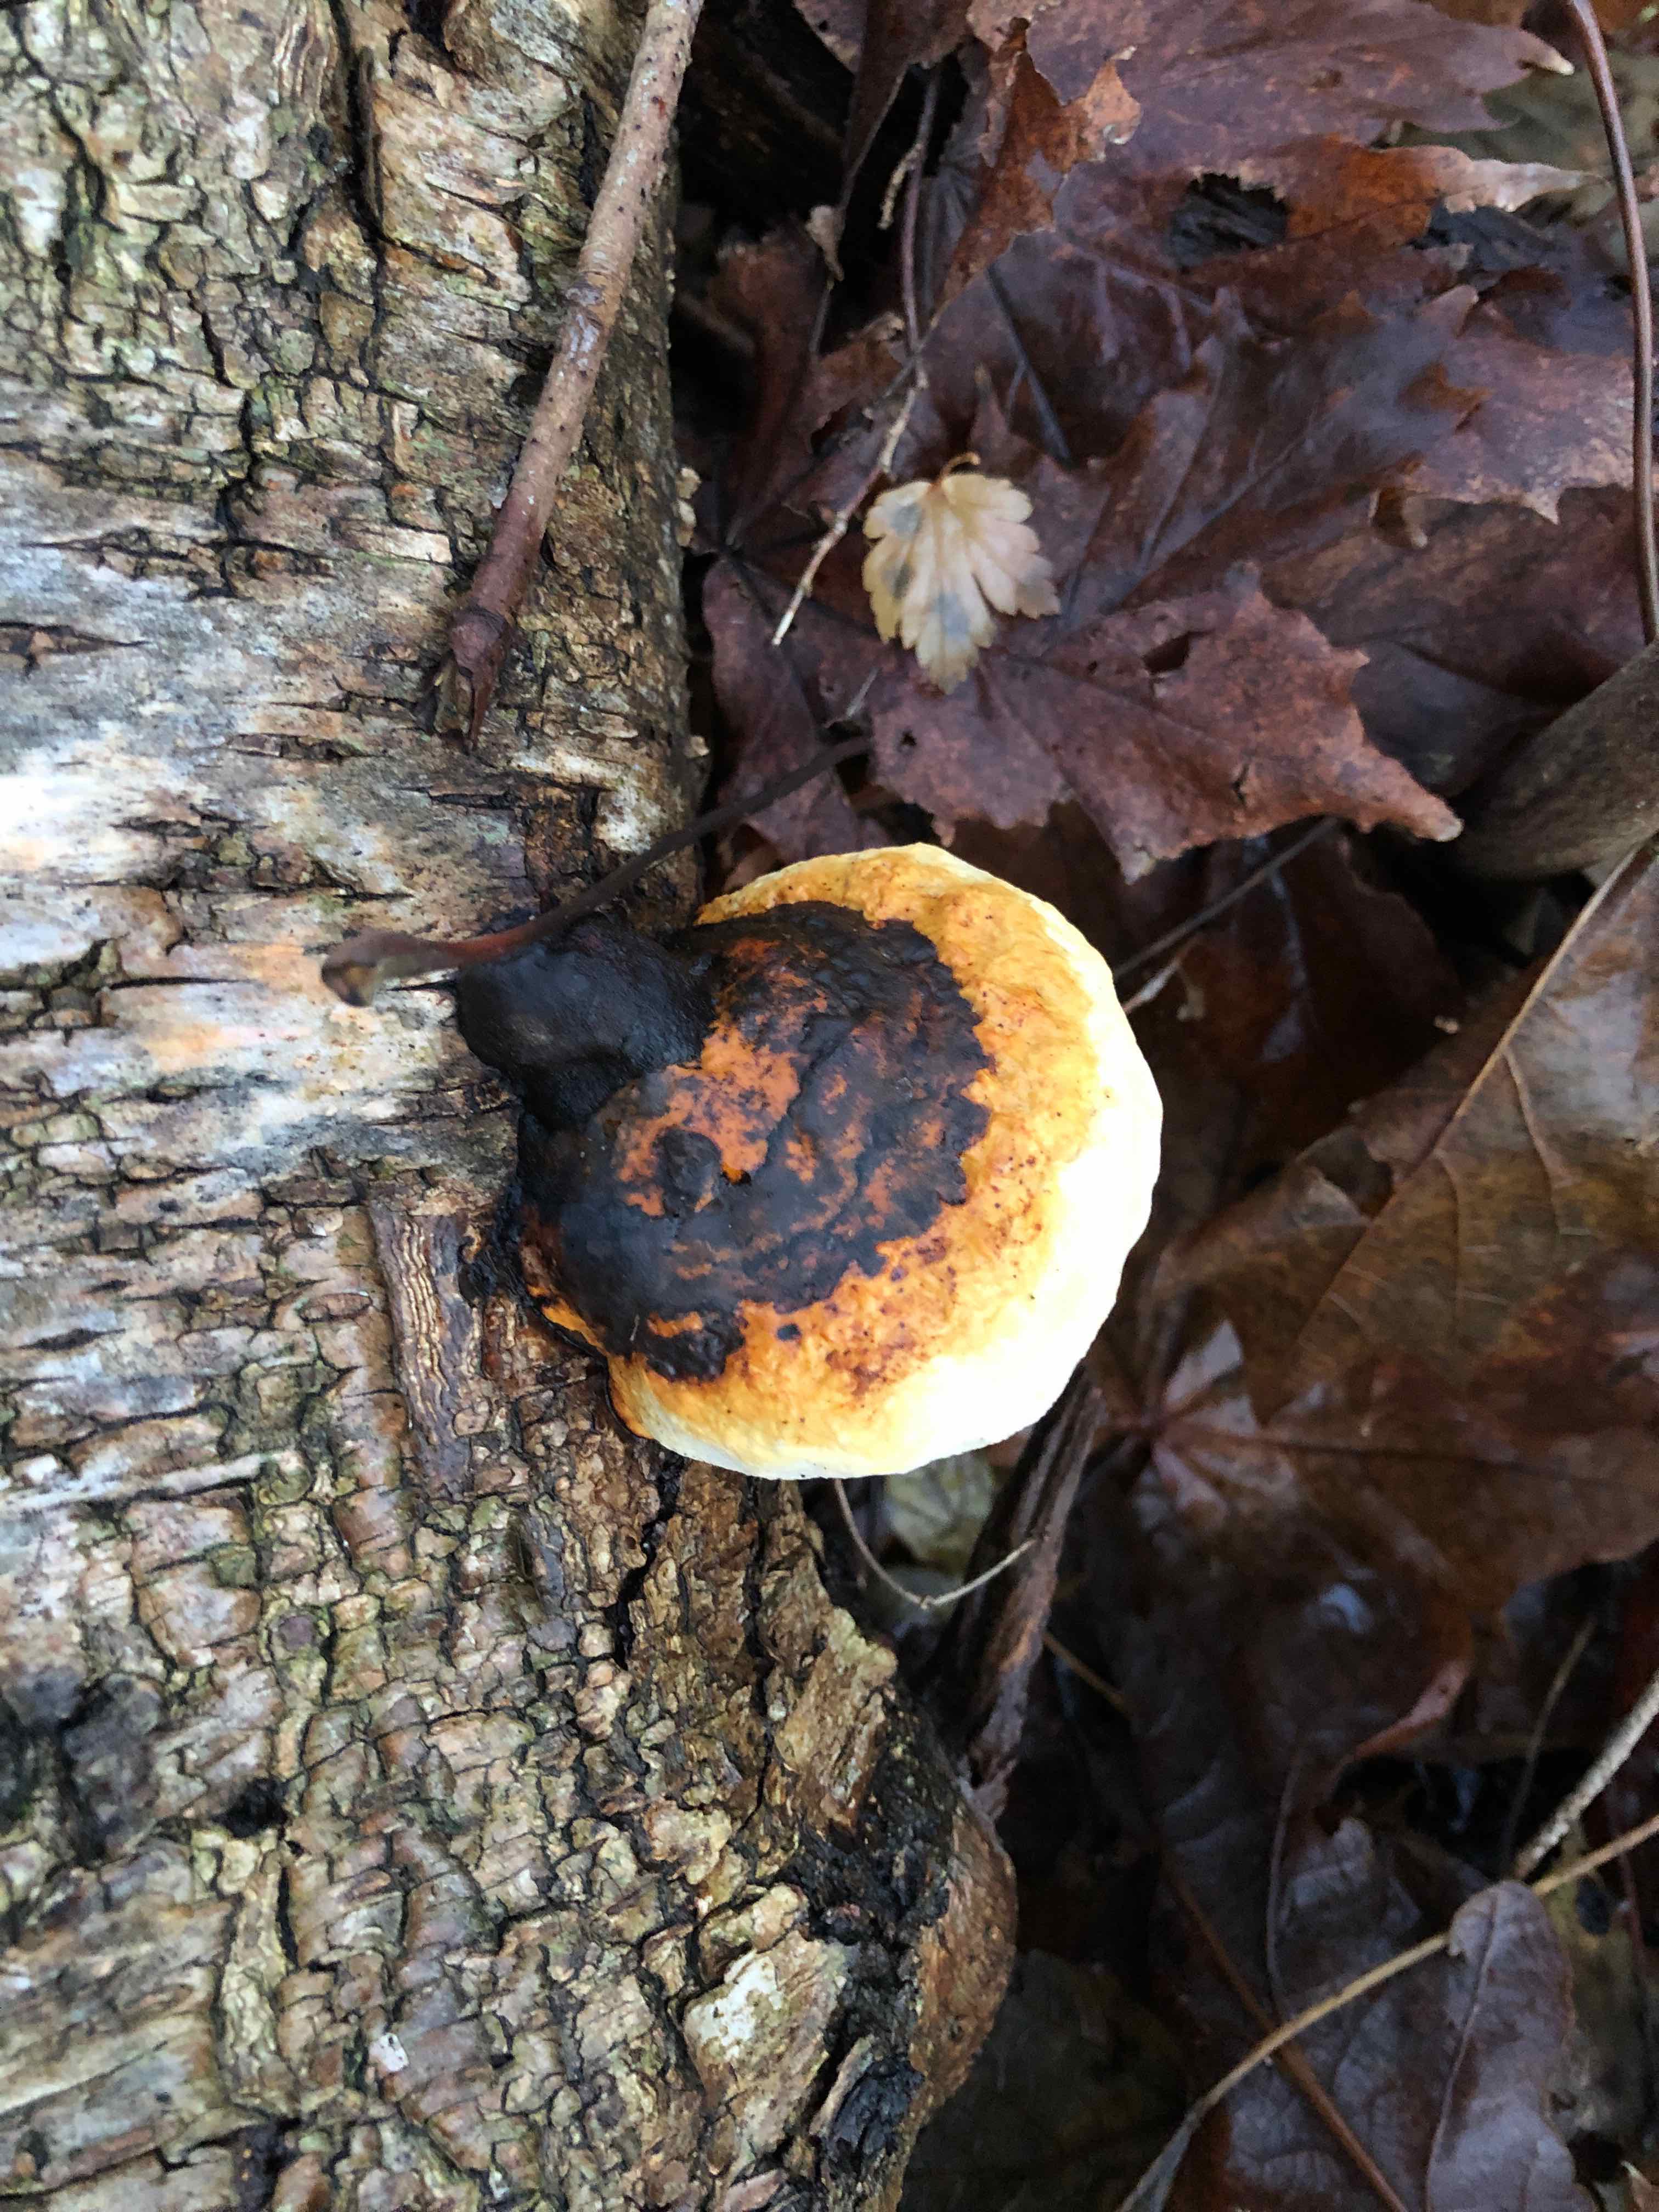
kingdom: Fungi
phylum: Basidiomycota
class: Agaricomycetes
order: Polyporales
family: Fomitopsidaceae
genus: Fomitopsis
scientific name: Fomitopsis pinicola
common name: randbæltet hovporesvamp
